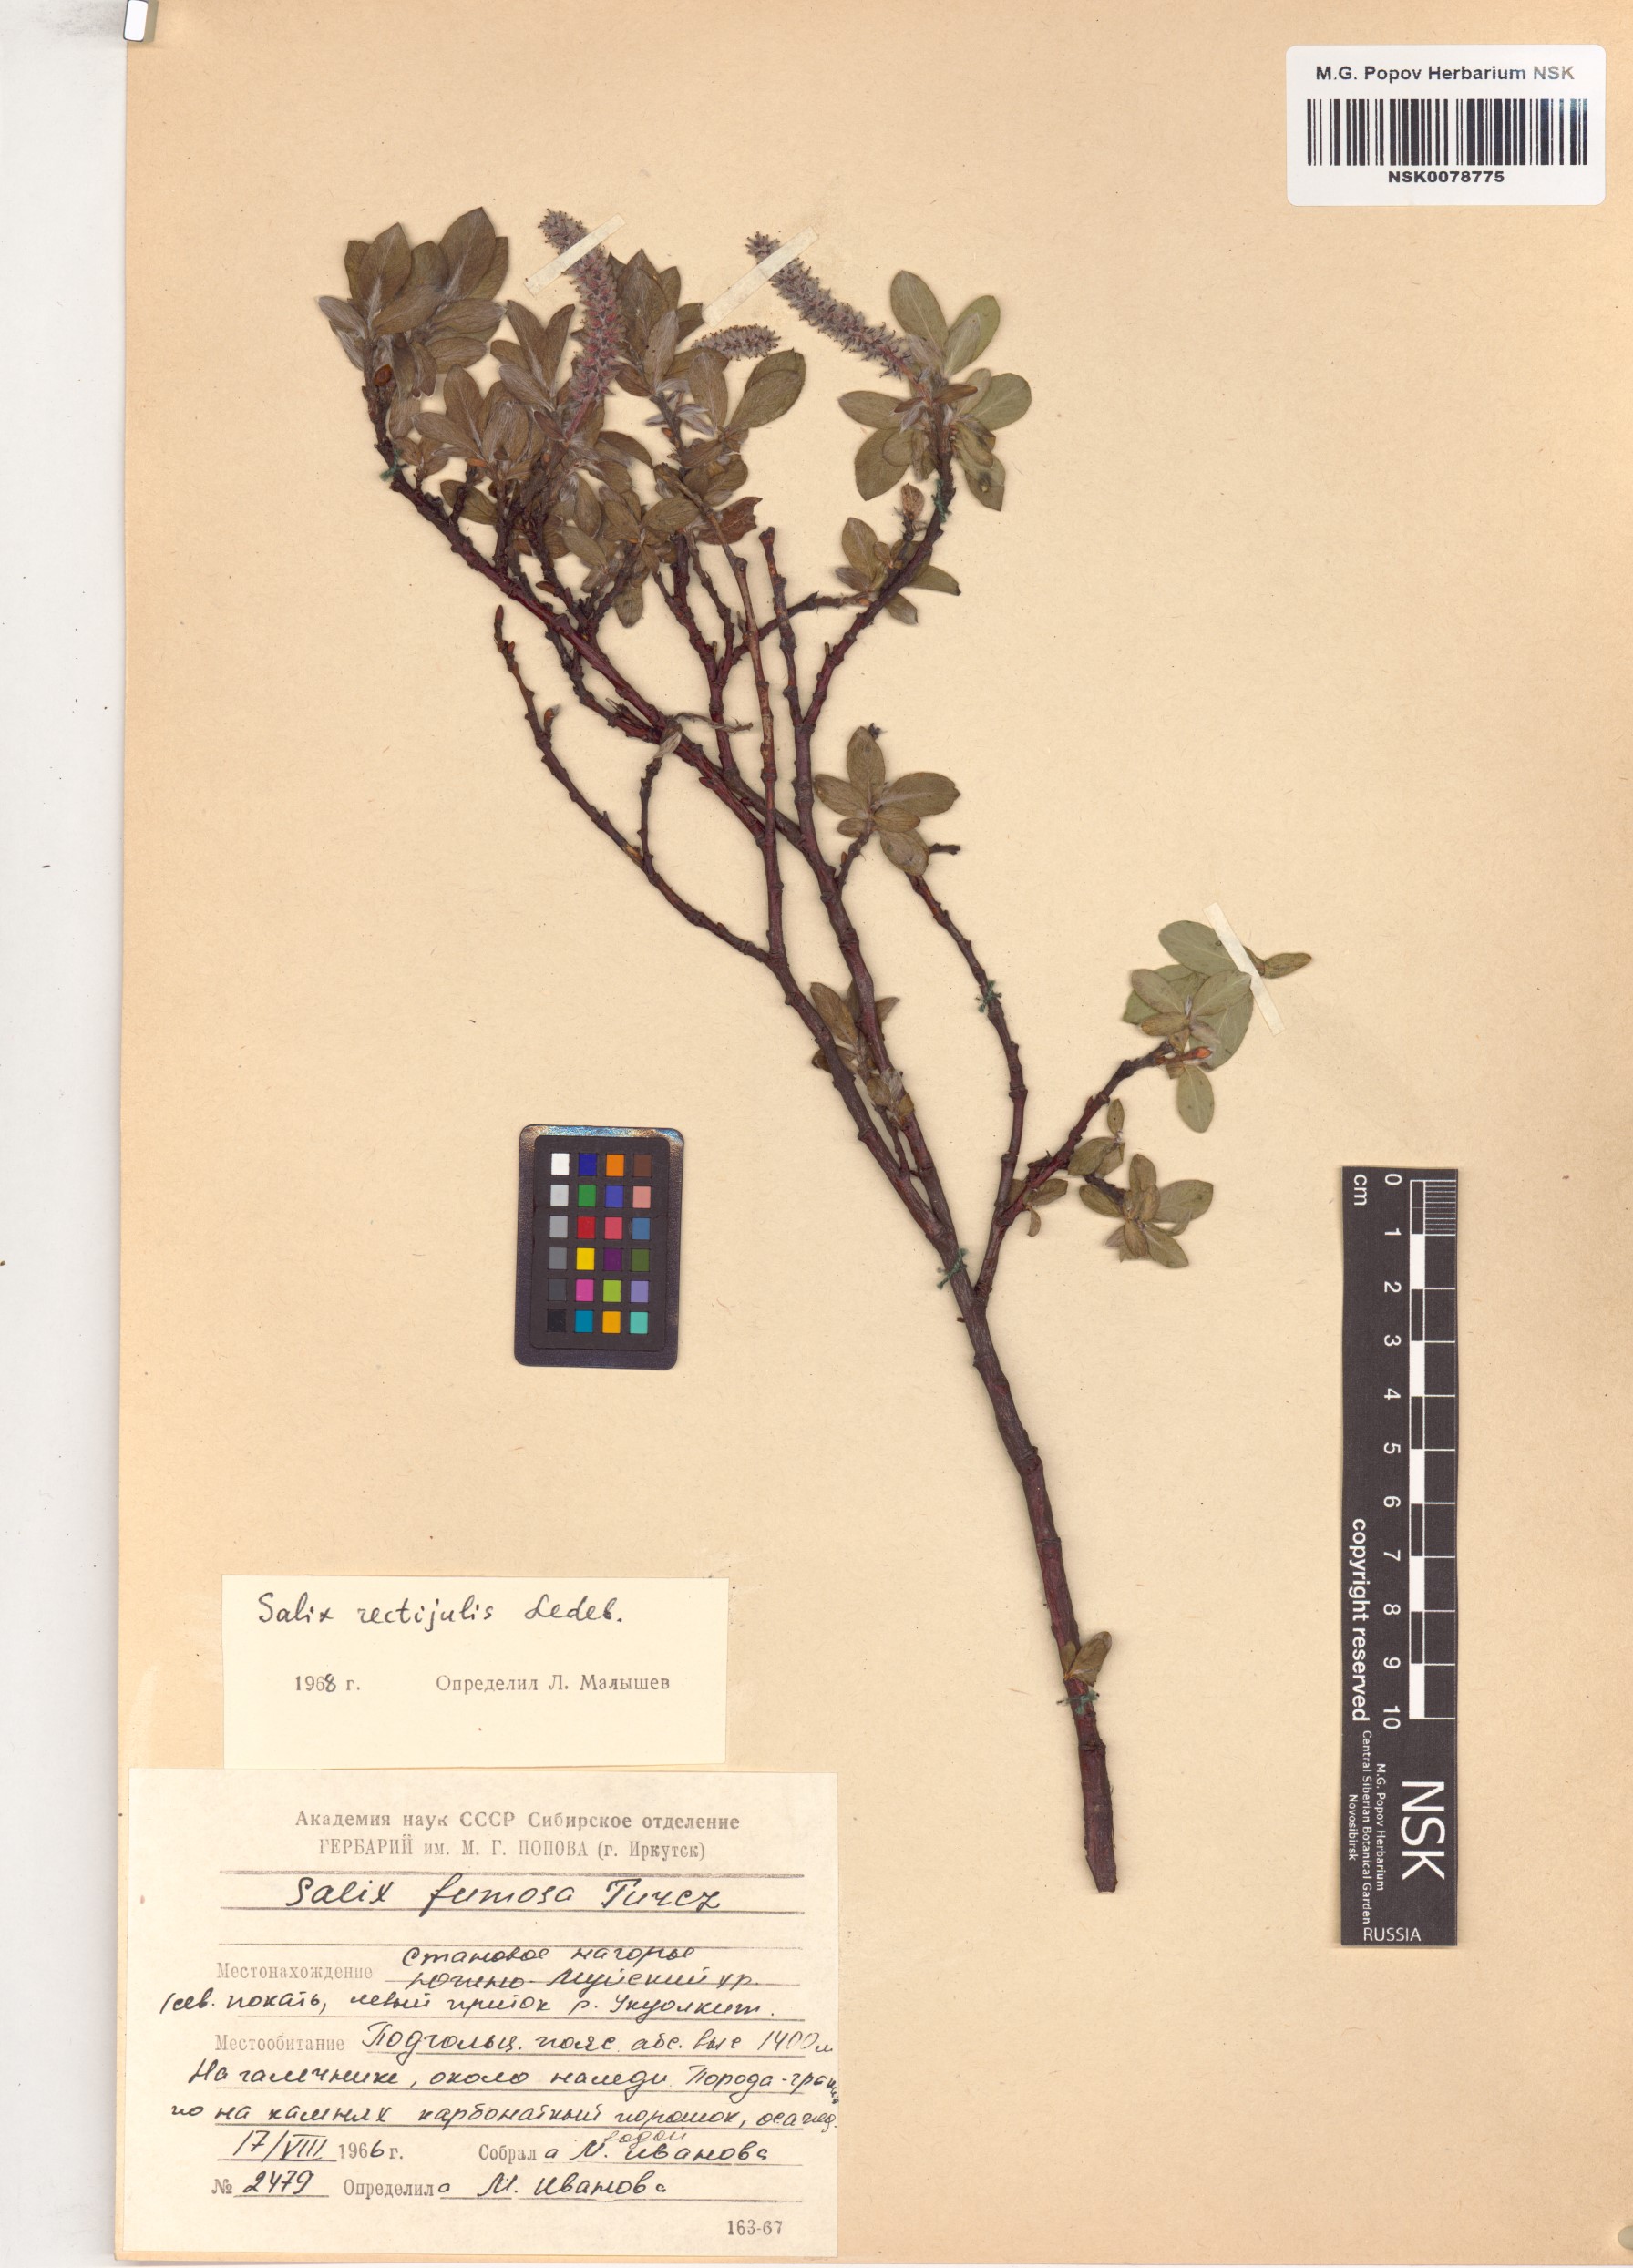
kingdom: Plantae
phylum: Tracheophyta
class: Magnoliopsida
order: Malpighiales
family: Salicaceae
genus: Salix
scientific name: Salix rectijulis
